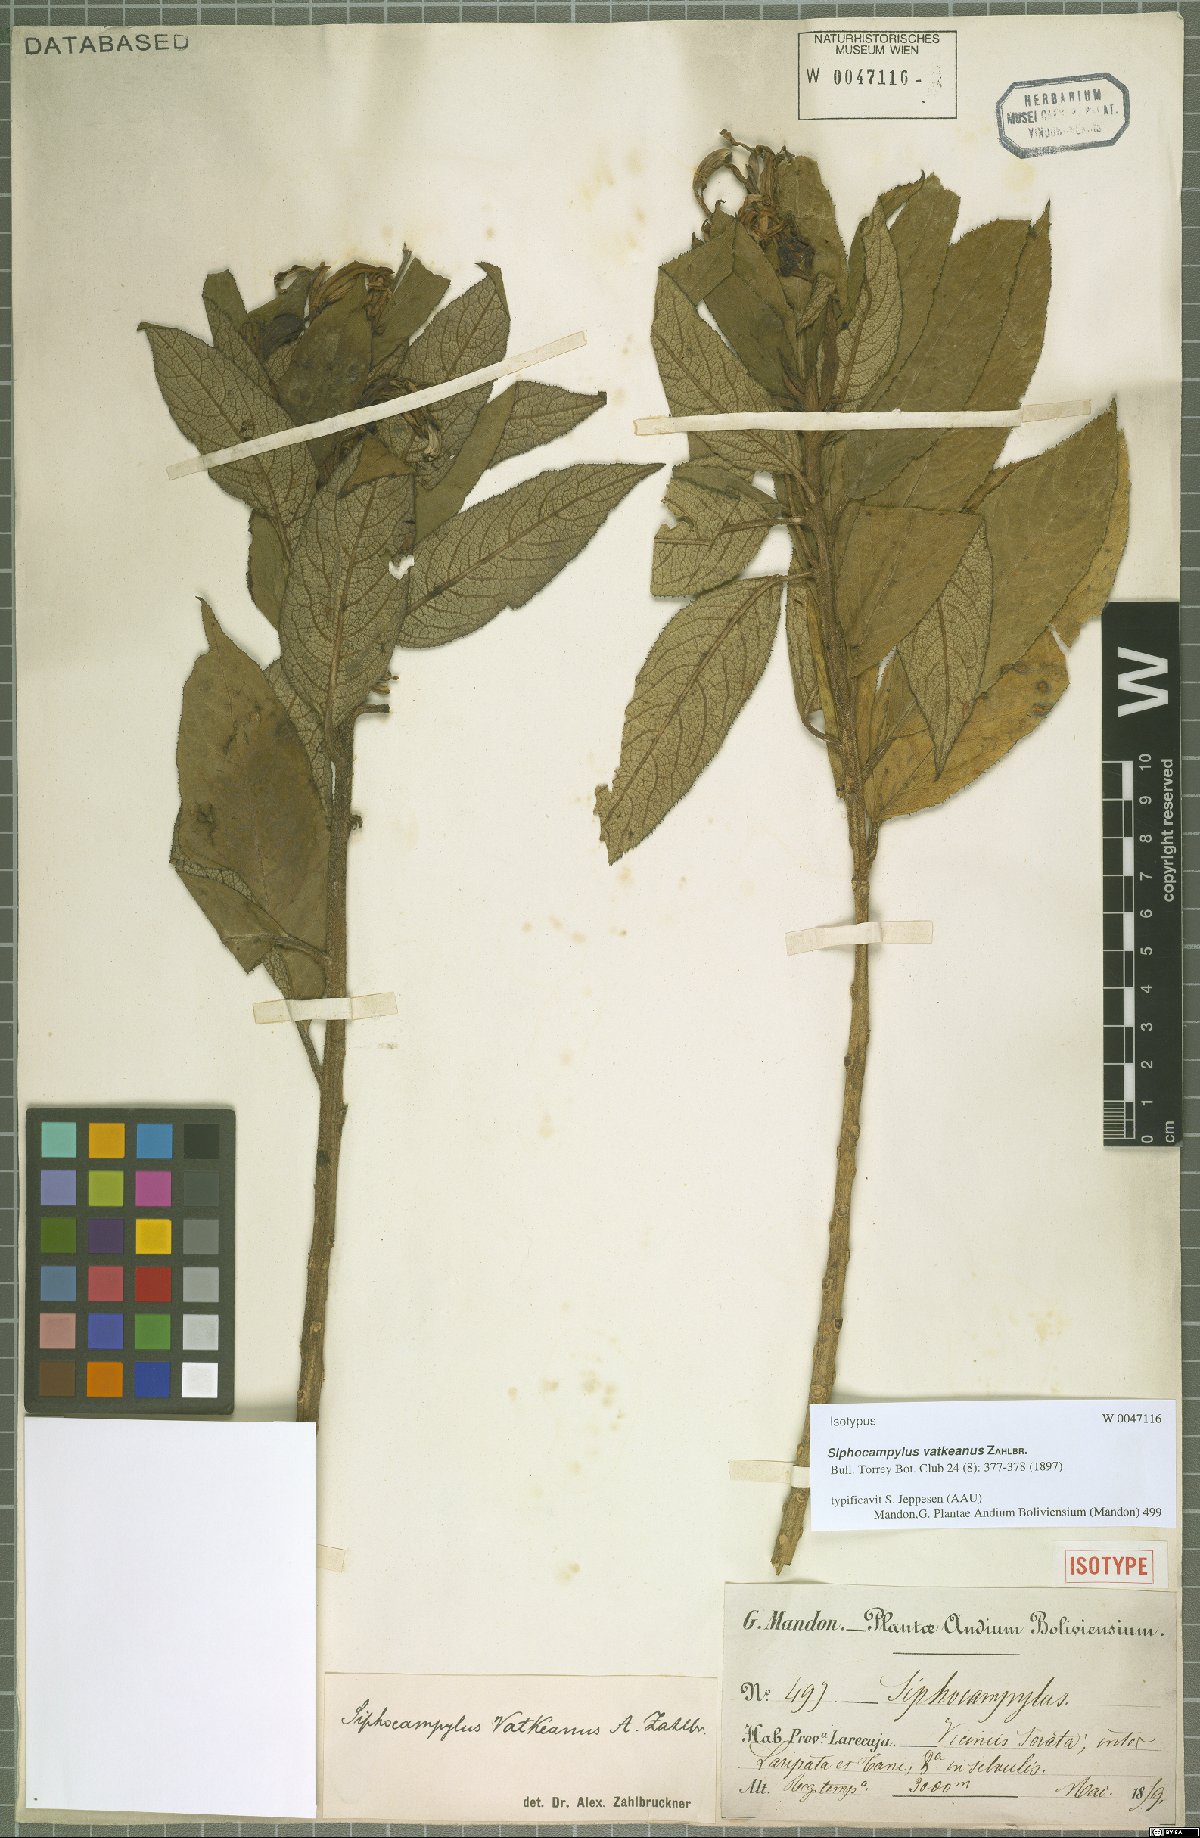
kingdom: Plantae
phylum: Tracheophyta
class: Magnoliopsida
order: Asterales
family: Campanulaceae
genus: Siphocampylus
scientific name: Siphocampylus vatkeanus
